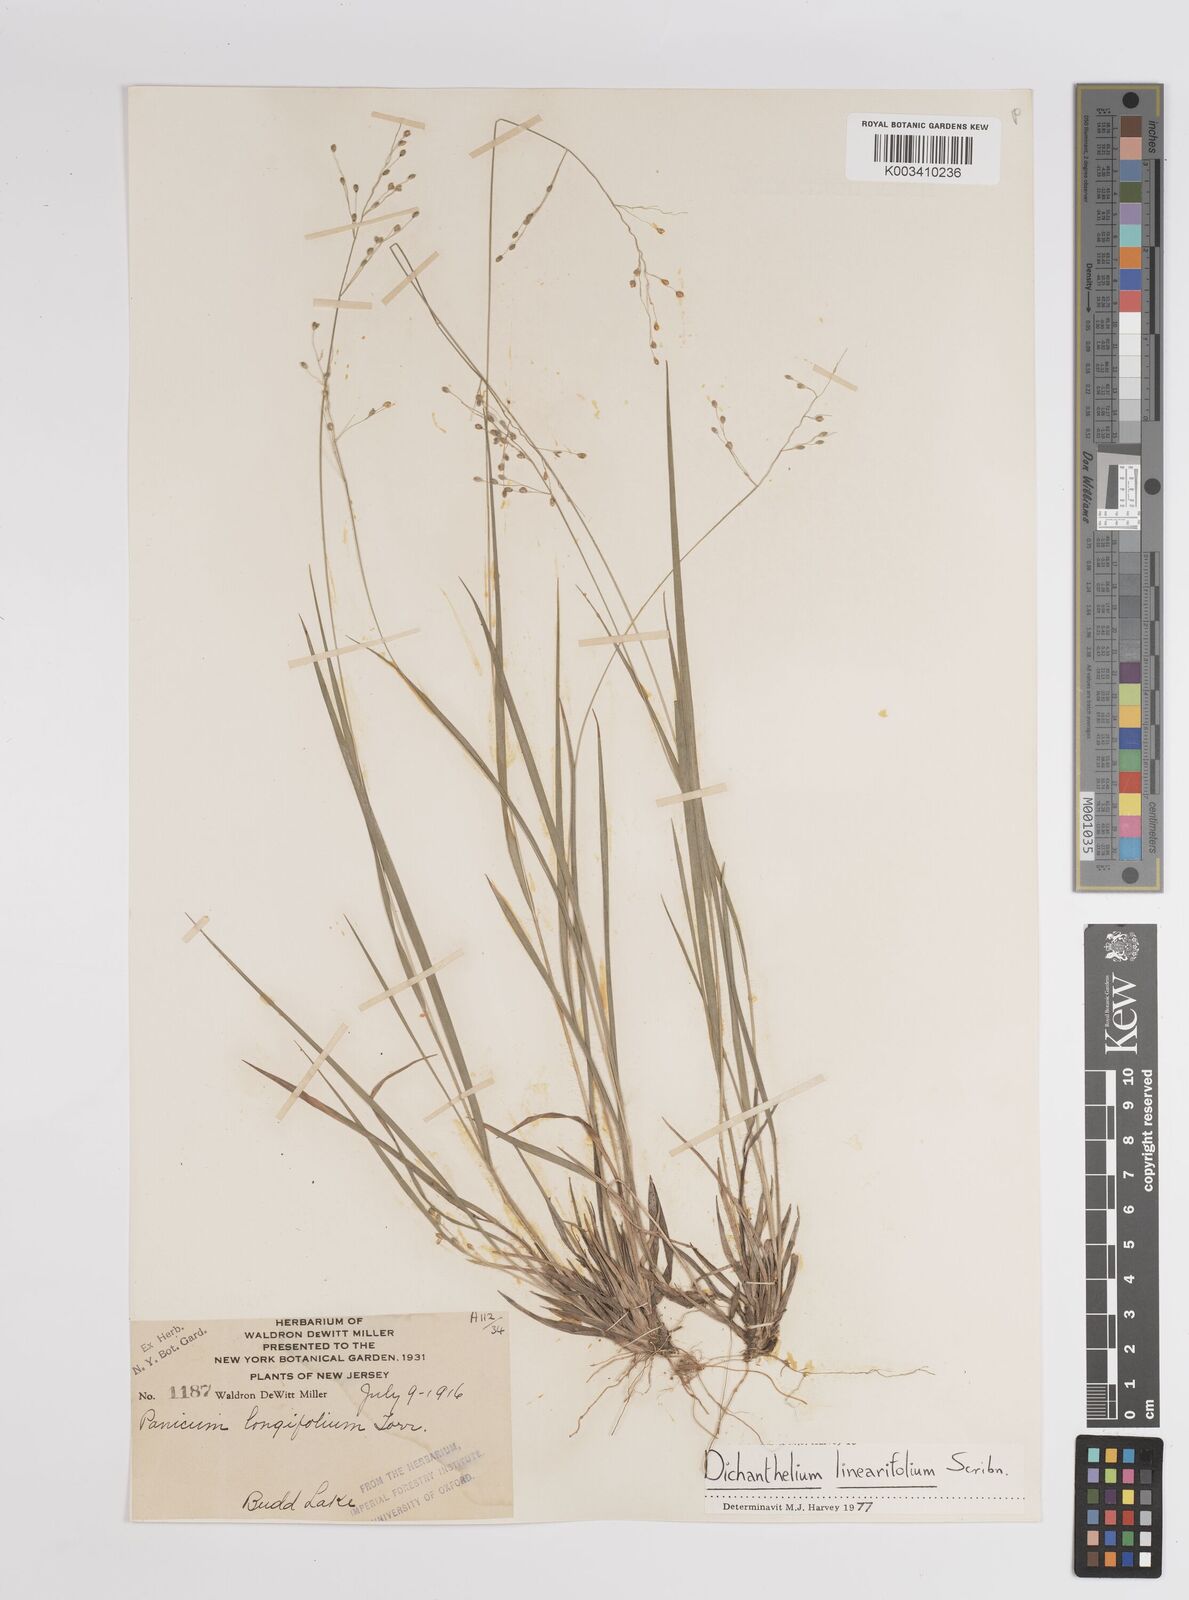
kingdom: Plantae
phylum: Tracheophyta
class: Liliopsida
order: Poales
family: Poaceae
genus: Dichanthelium
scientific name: Dichanthelium linearifolium
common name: Linear-leaved panicgrass
